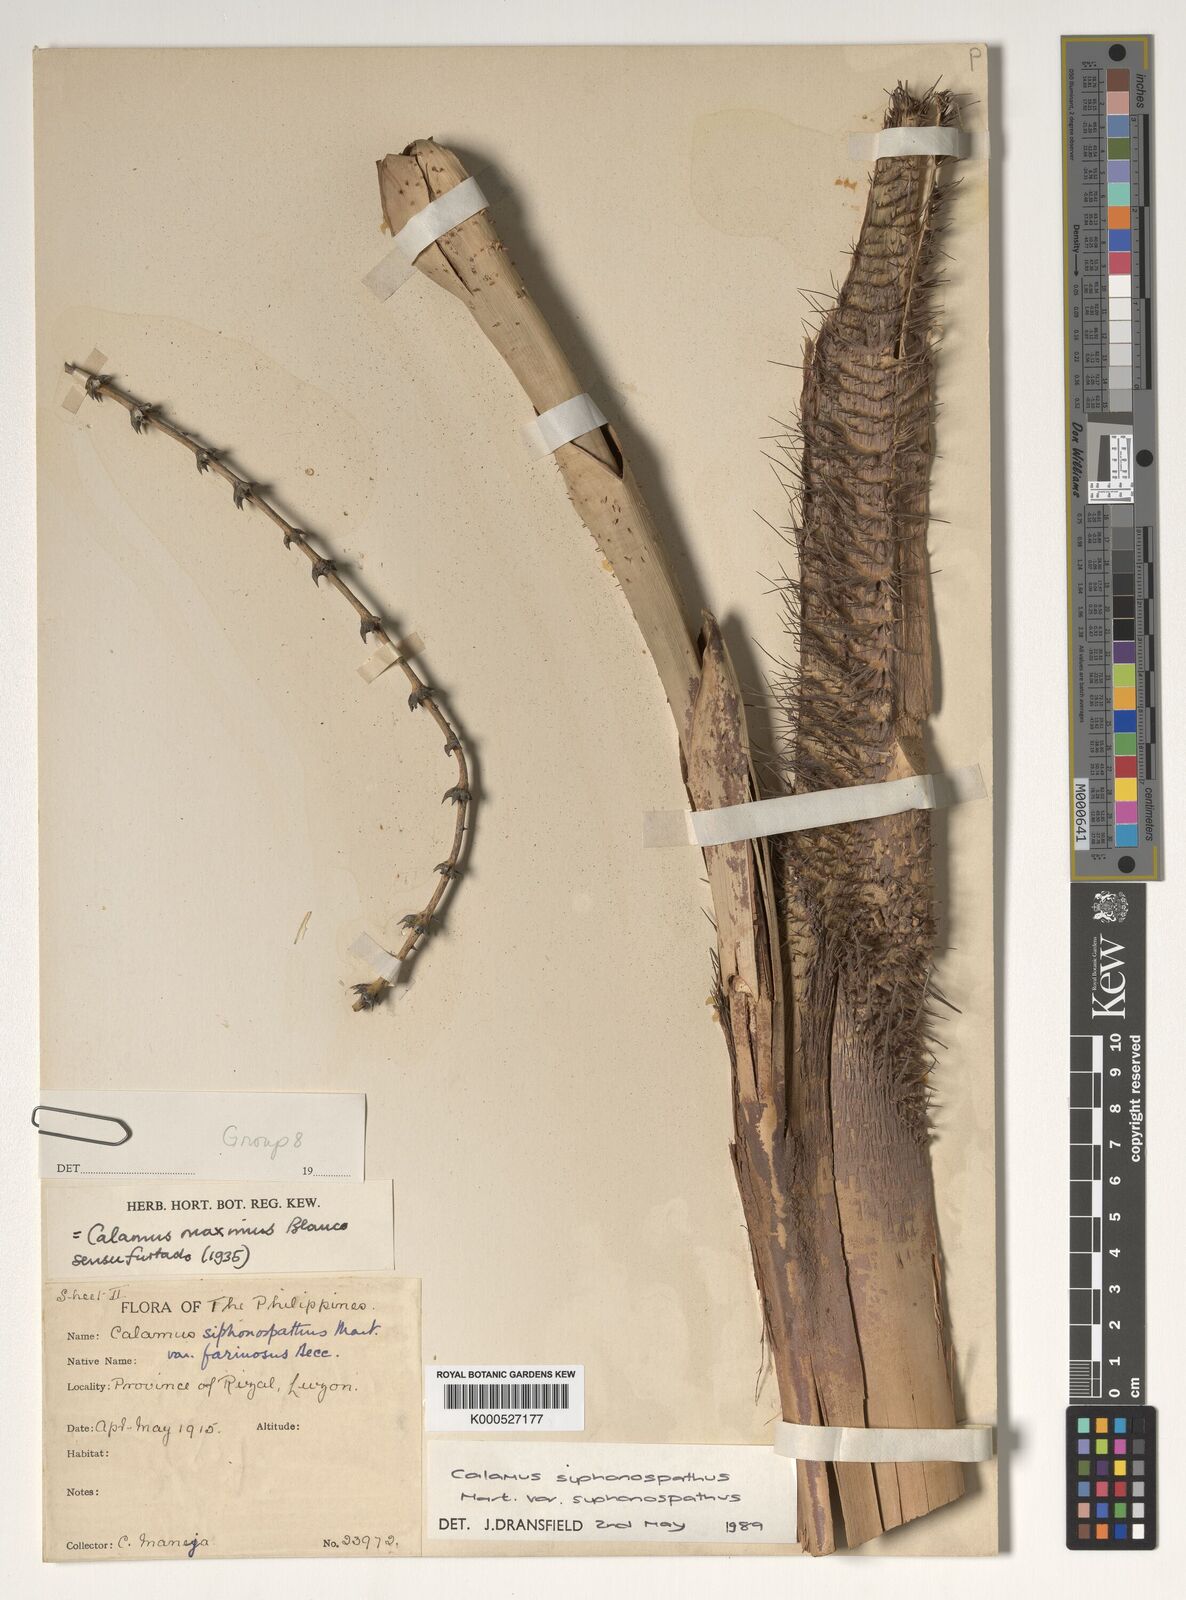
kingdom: Plantae
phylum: Tracheophyta
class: Liliopsida
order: Arecales
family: Arecaceae
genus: Calamus
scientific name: Calamus siphonospathus
